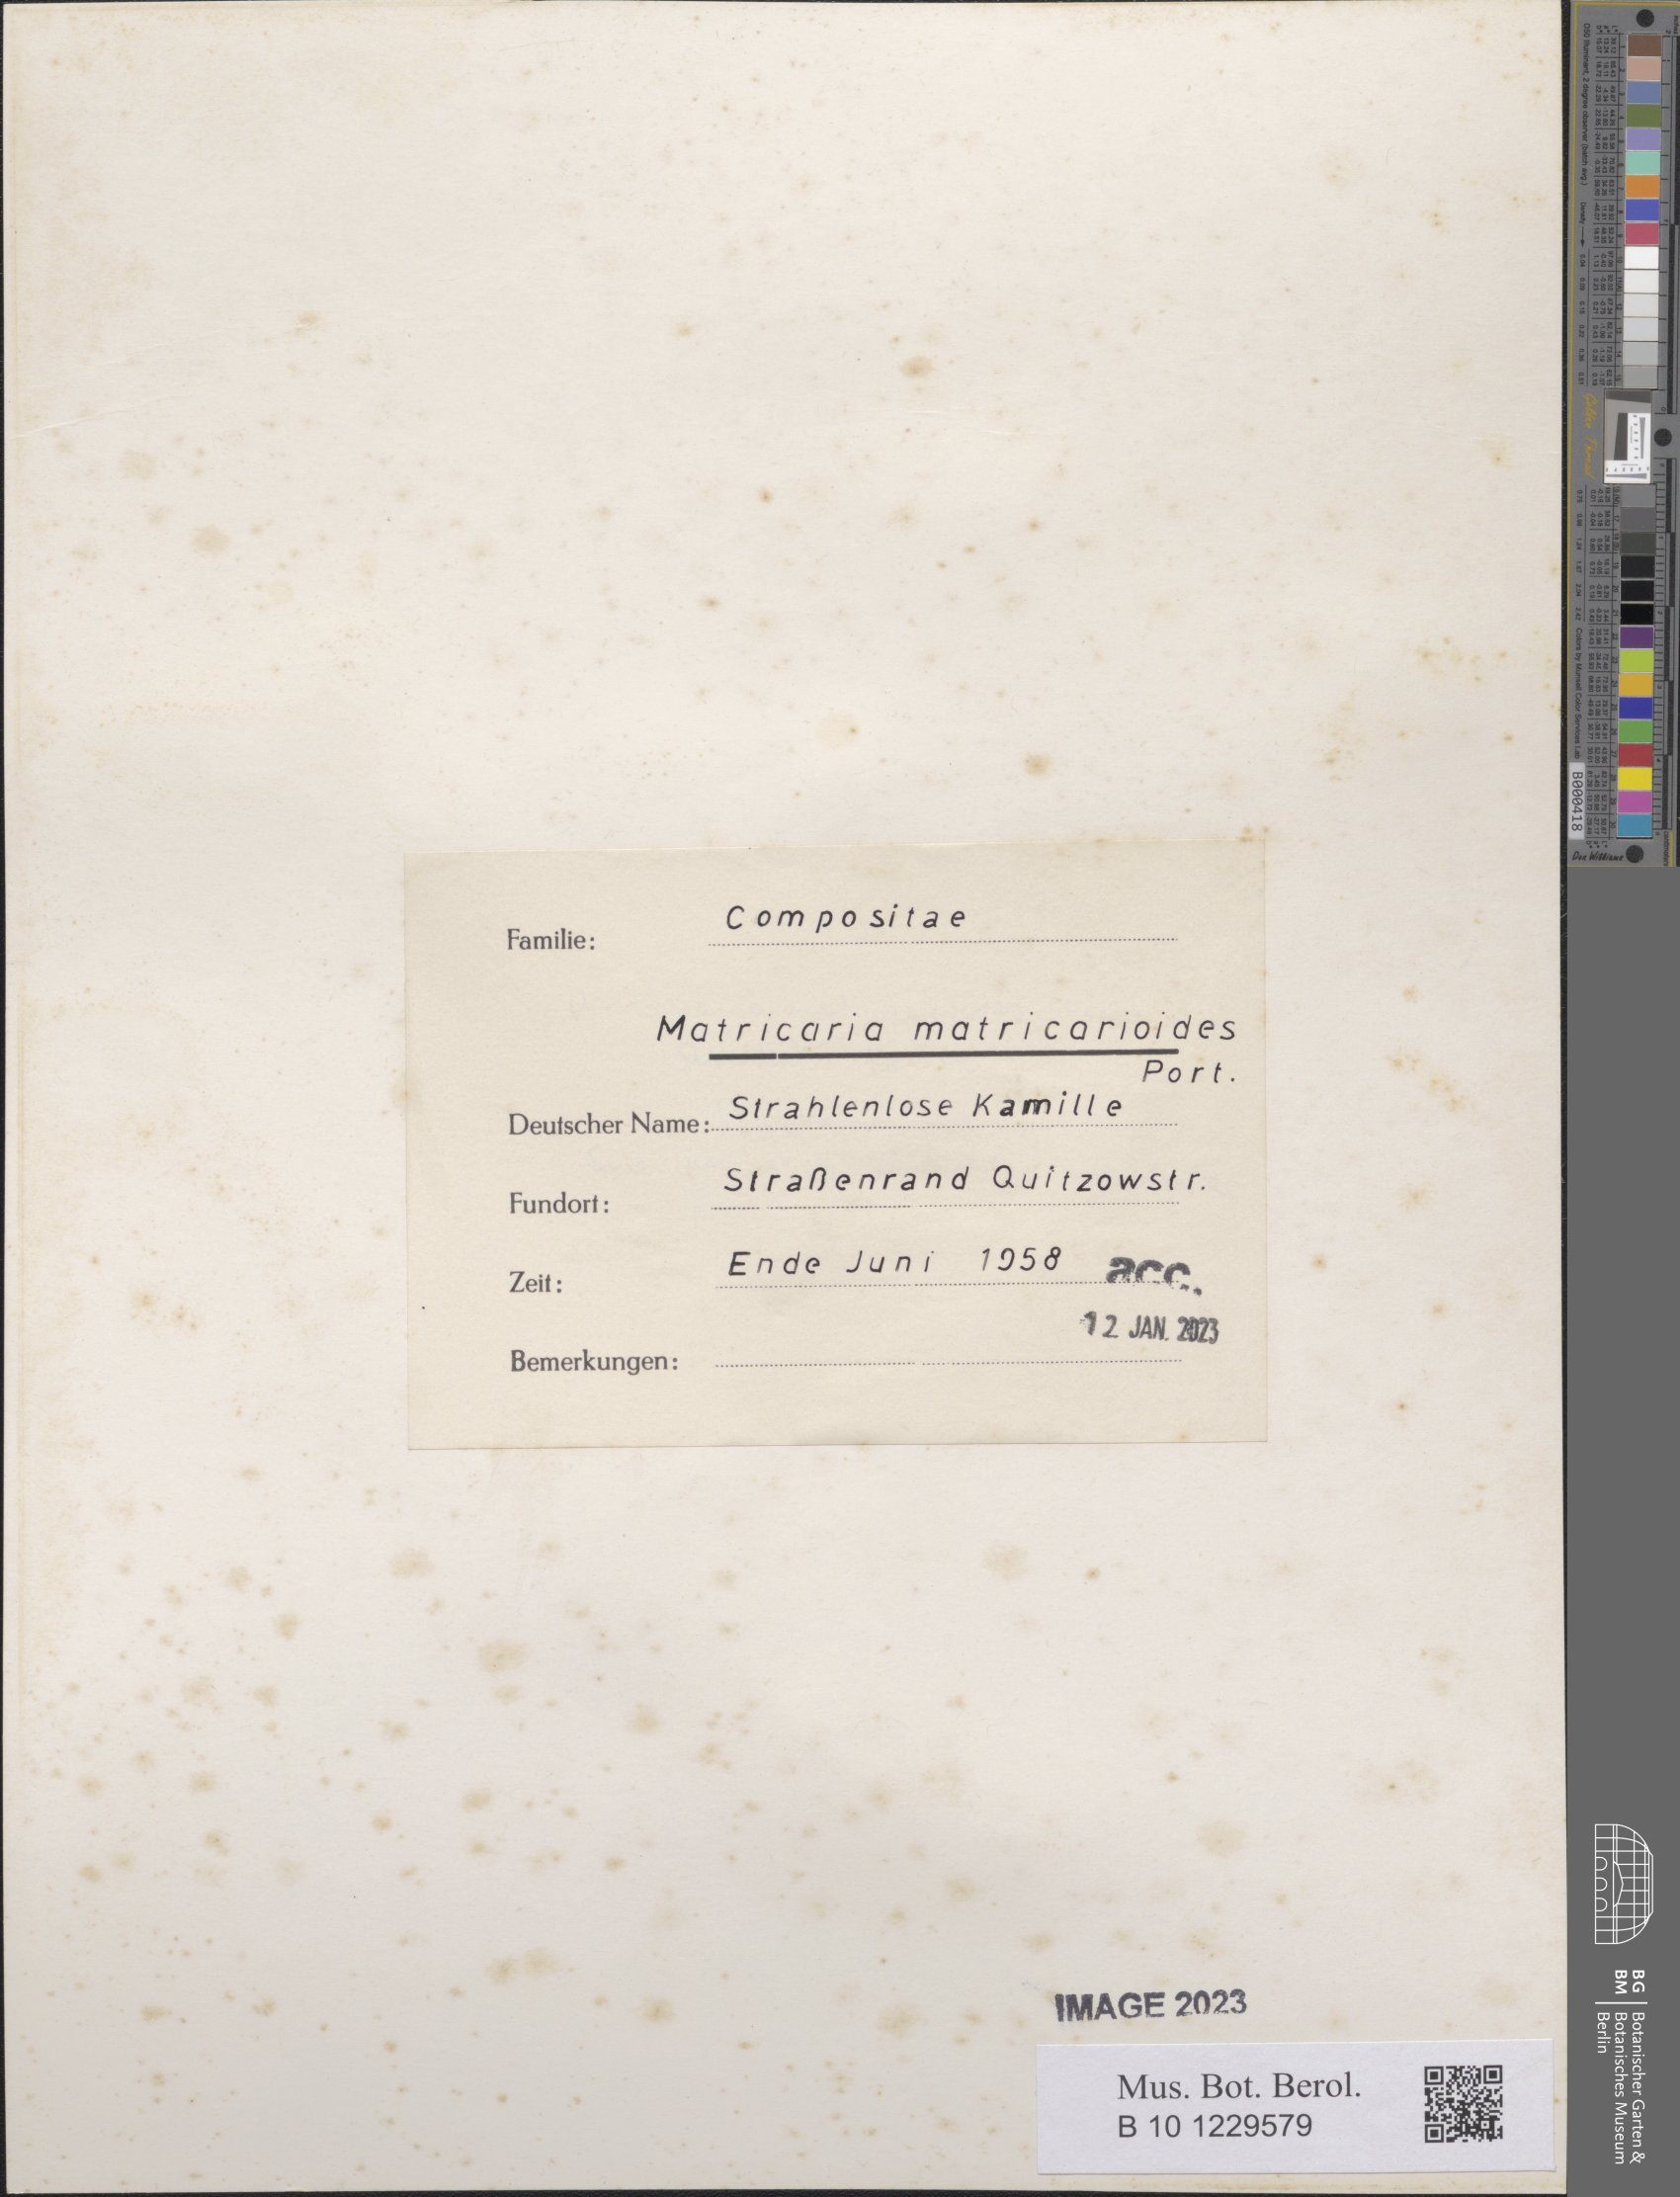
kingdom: Plantae
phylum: Tracheophyta
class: Magnoliopsida
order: Solanales
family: Solanaceae
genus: Solanum
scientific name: Solanum nigrum
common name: Black nightshade
